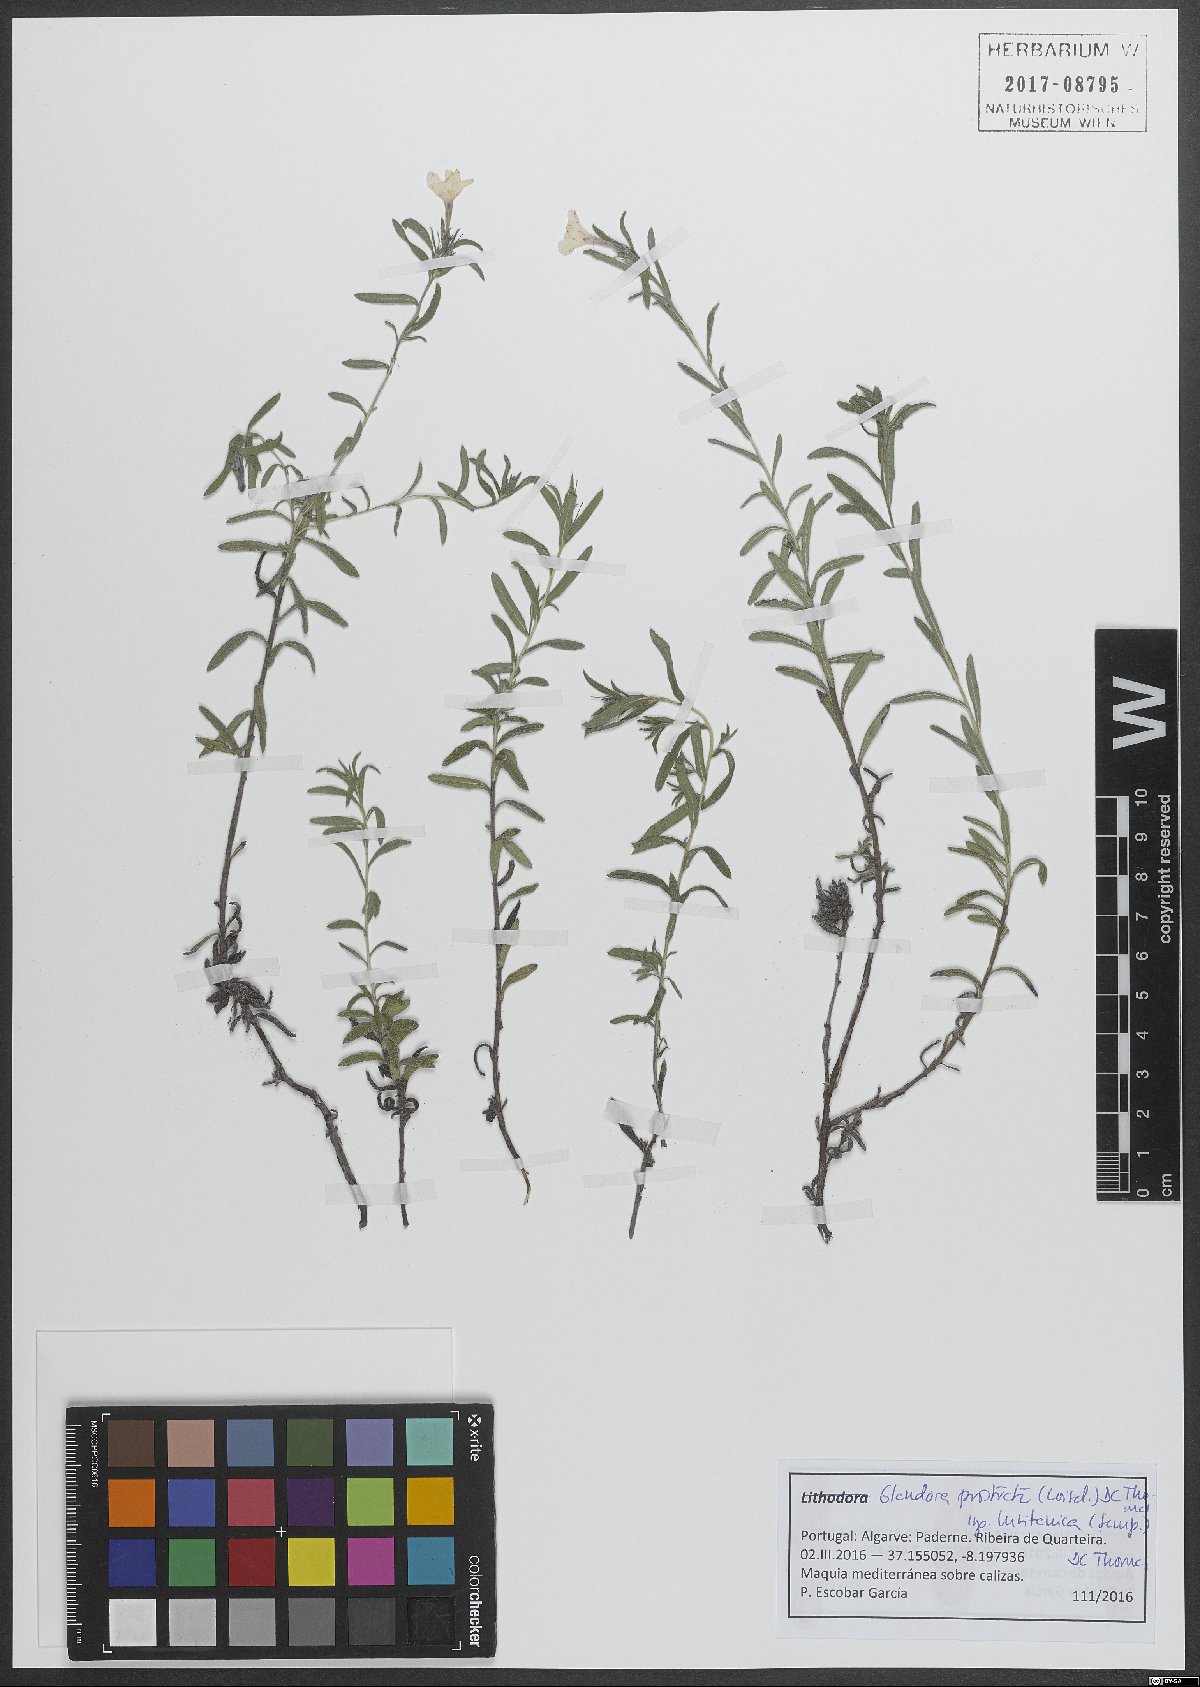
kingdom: Plantae
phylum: Tracheophyta
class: Magnoliopsida
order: Boraginales
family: Boraginaceae
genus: Glandora
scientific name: Glandora prostrata
